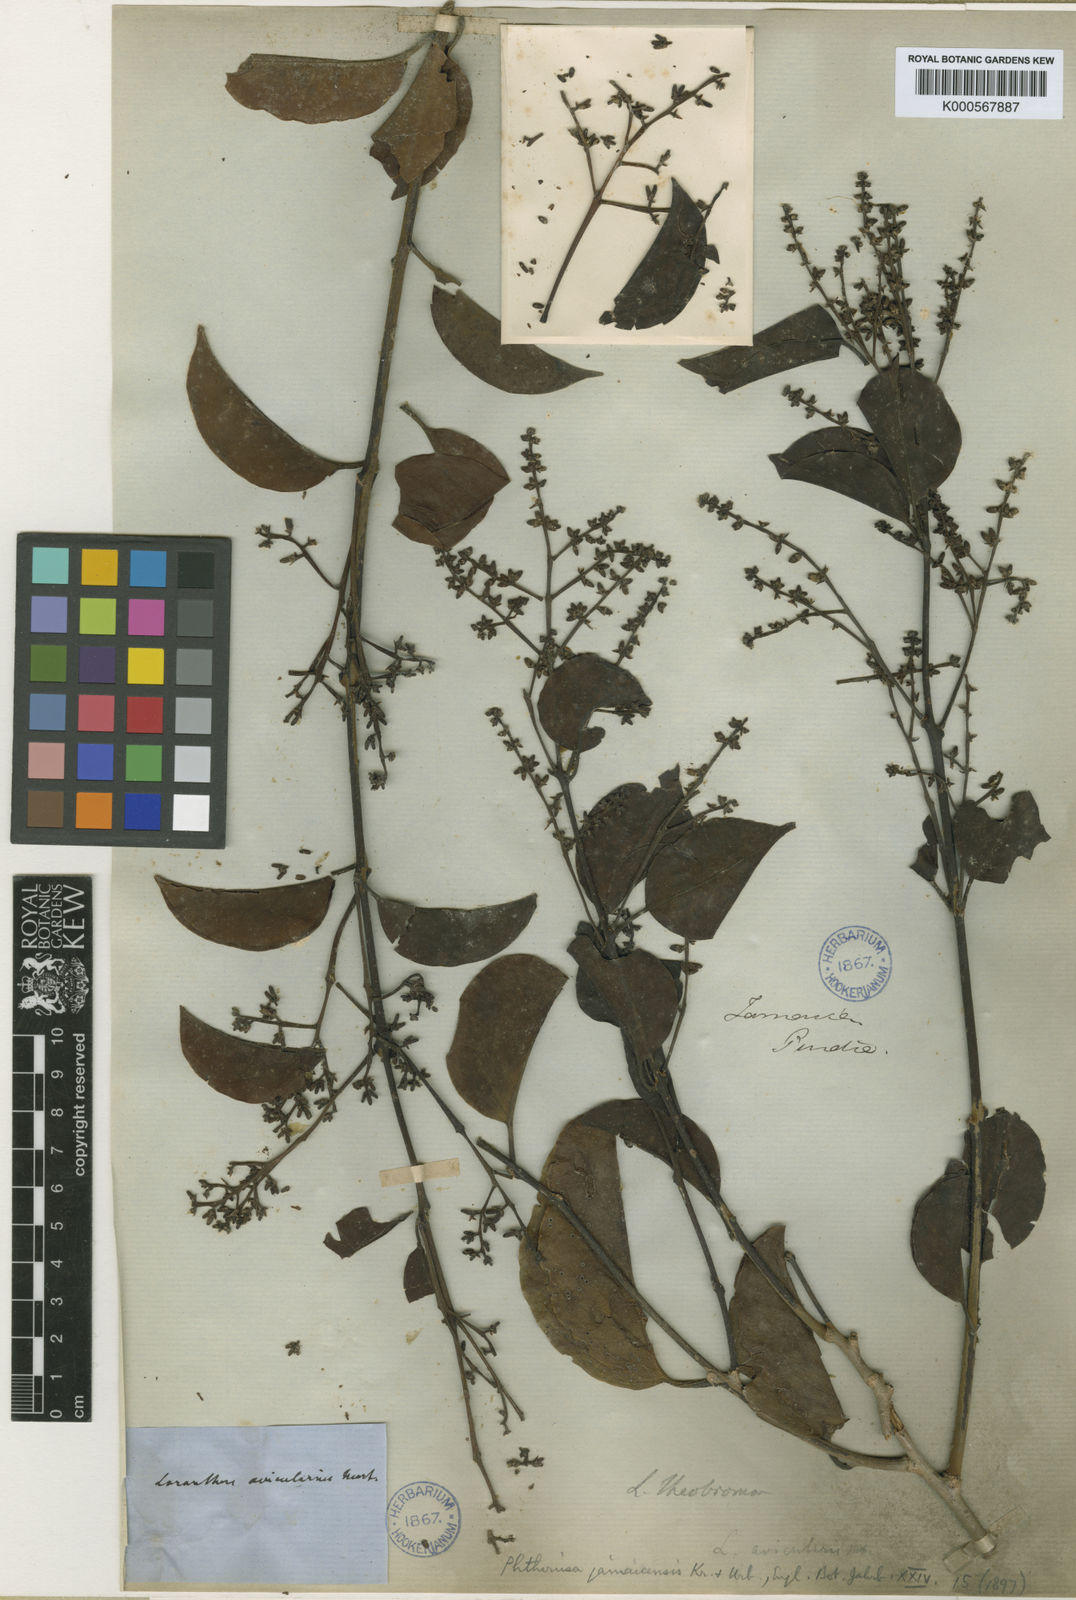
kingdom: Plantae
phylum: Tracheophyta
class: Magnoliopsida
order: Santalales
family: Loranthaceae
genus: Passovia
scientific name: Passovia
